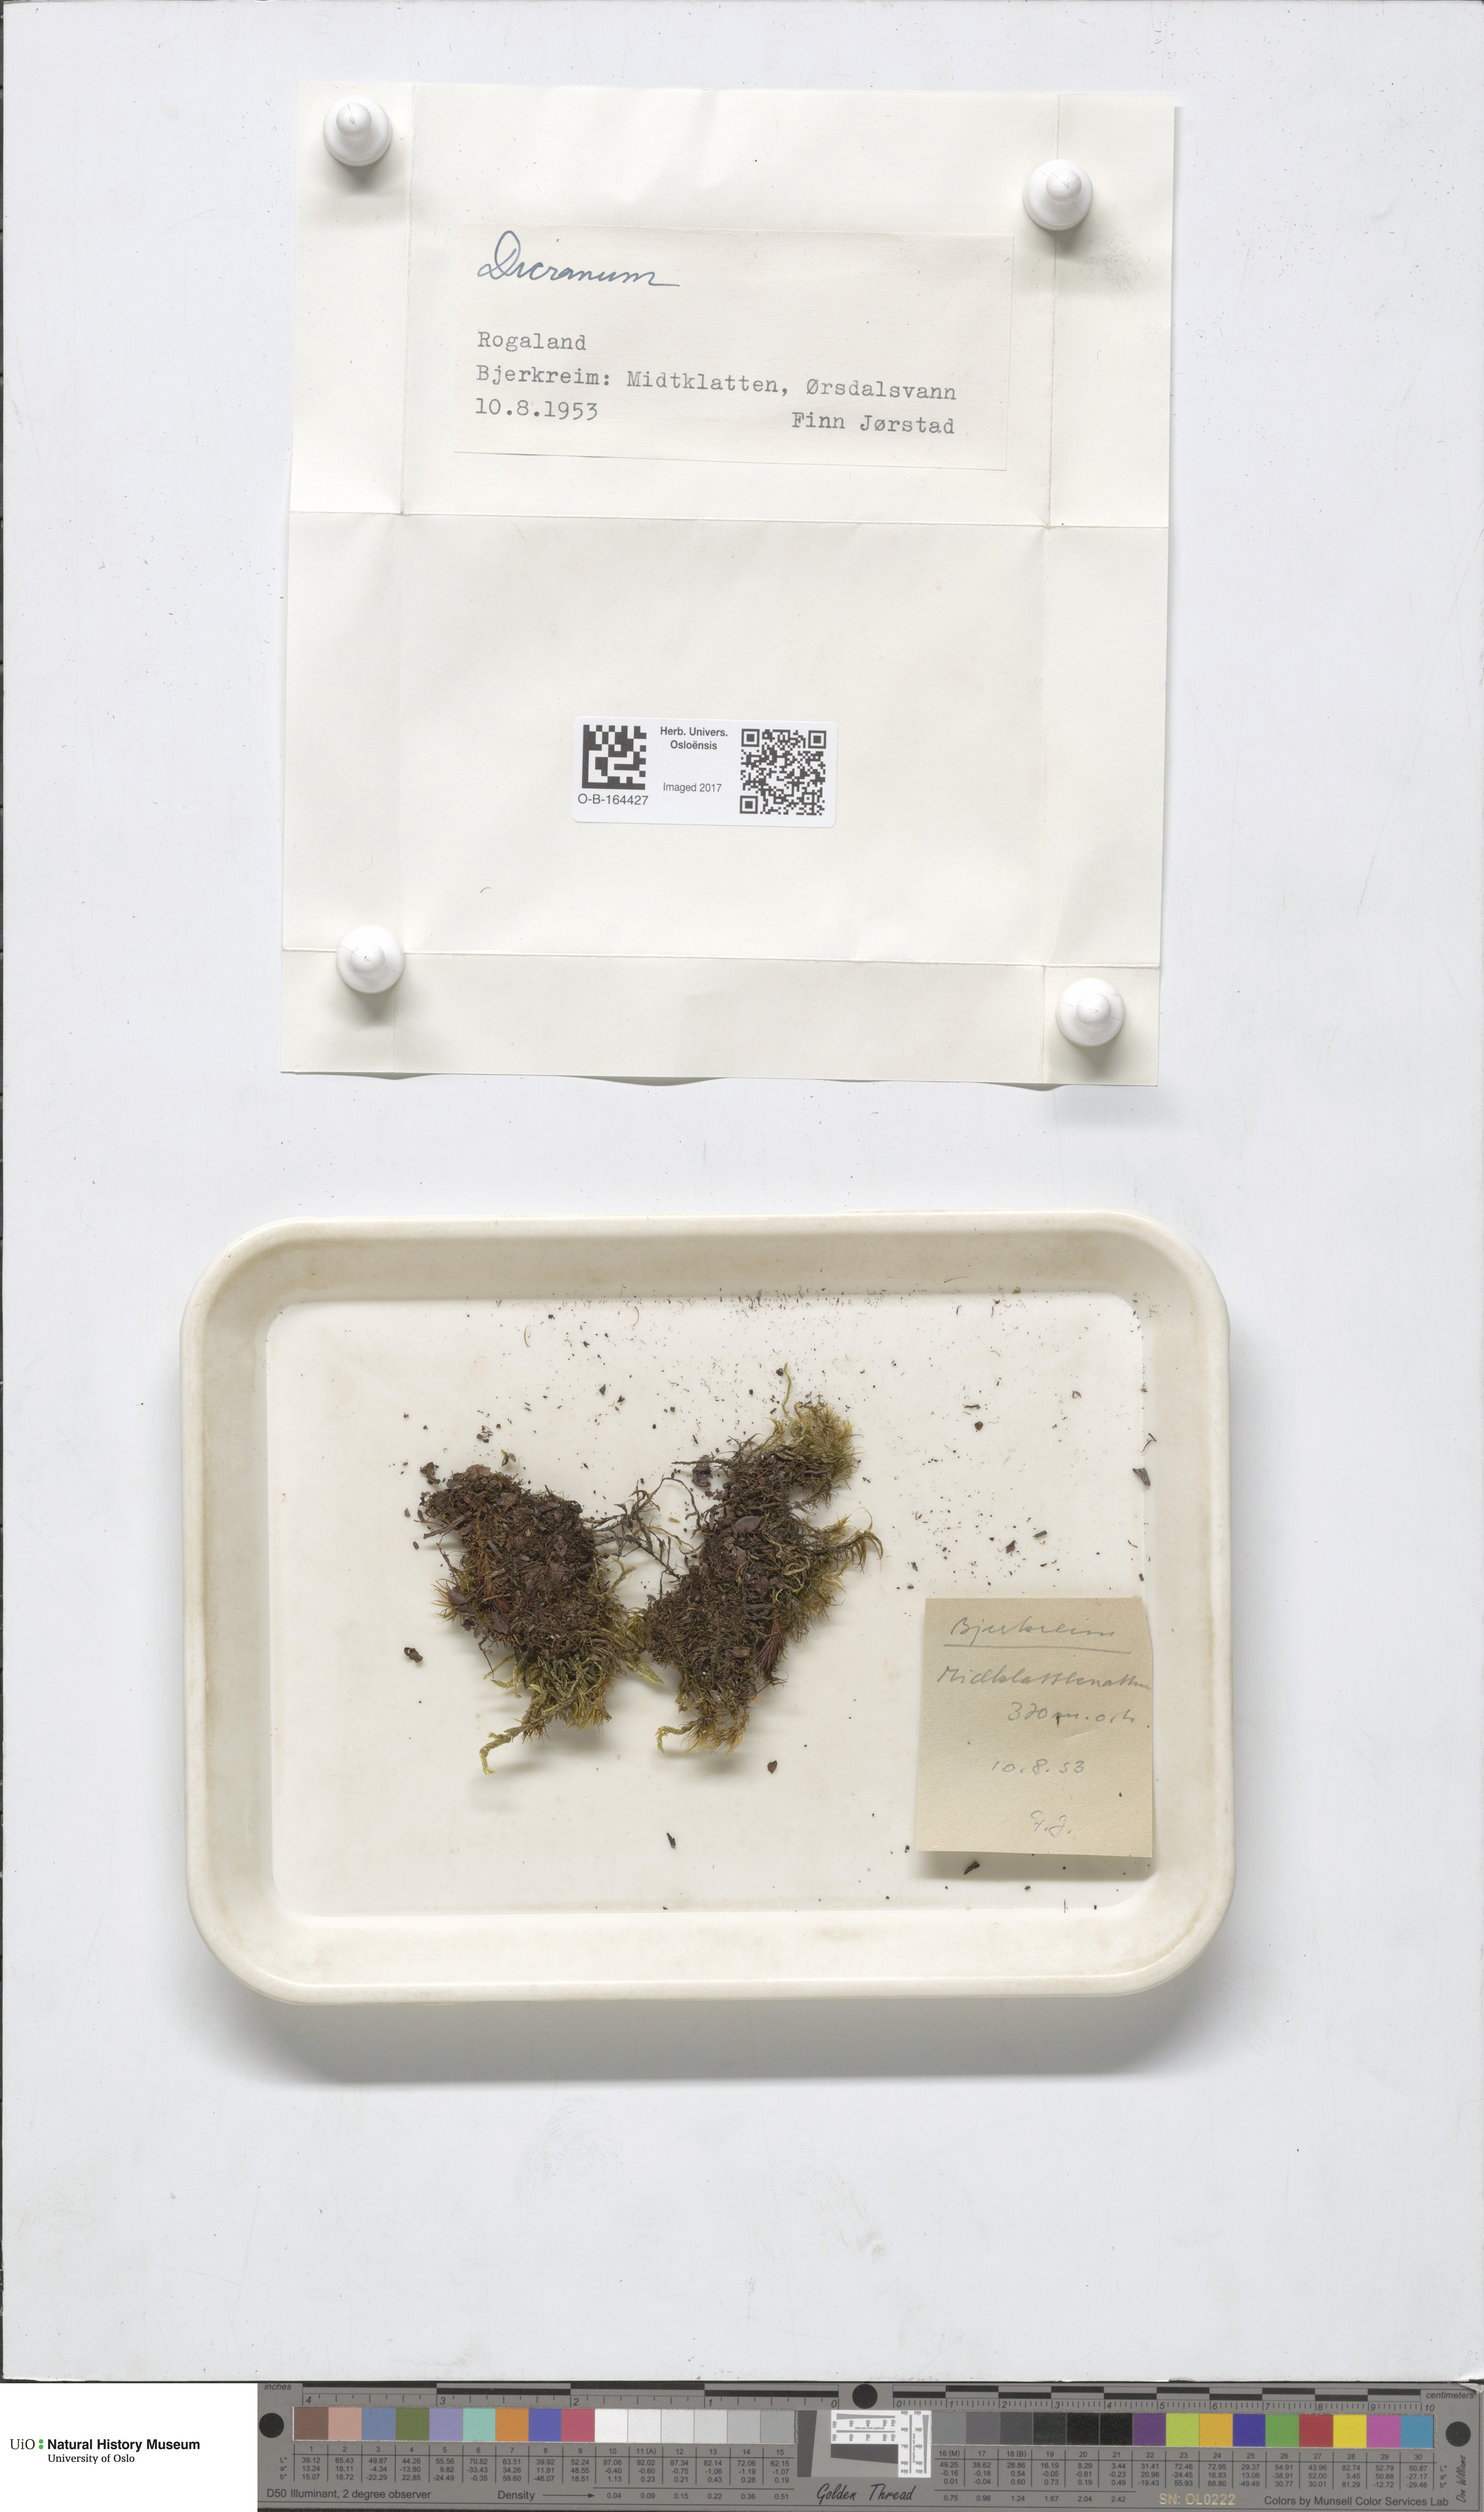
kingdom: Plantae
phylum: Bryophyta
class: Bryopsida
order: Dicranales
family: Dicranaceae
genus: Dicranum
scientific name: Dicranum
